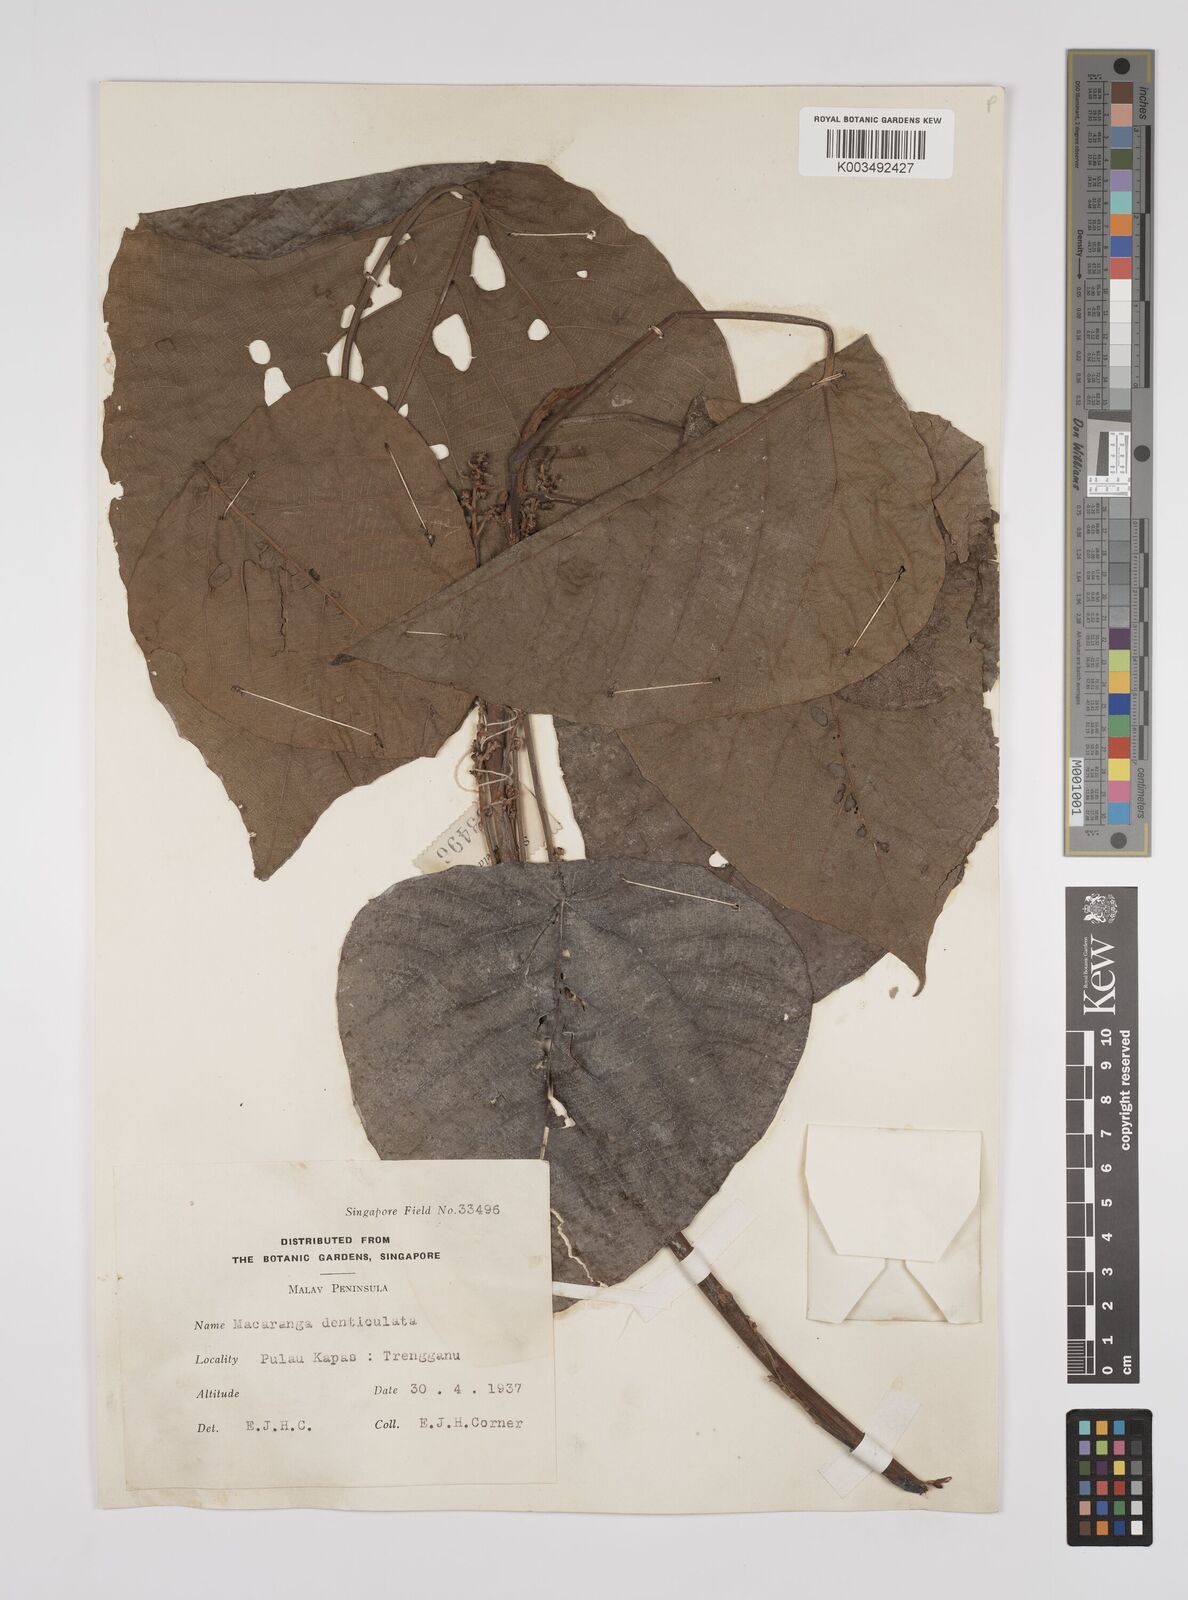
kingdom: Plantae
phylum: Tracheophyta
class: Magnoliopsida
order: Malpighiales
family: Euphorbiaceae
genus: Macaranga
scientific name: Macaranga denticulata
